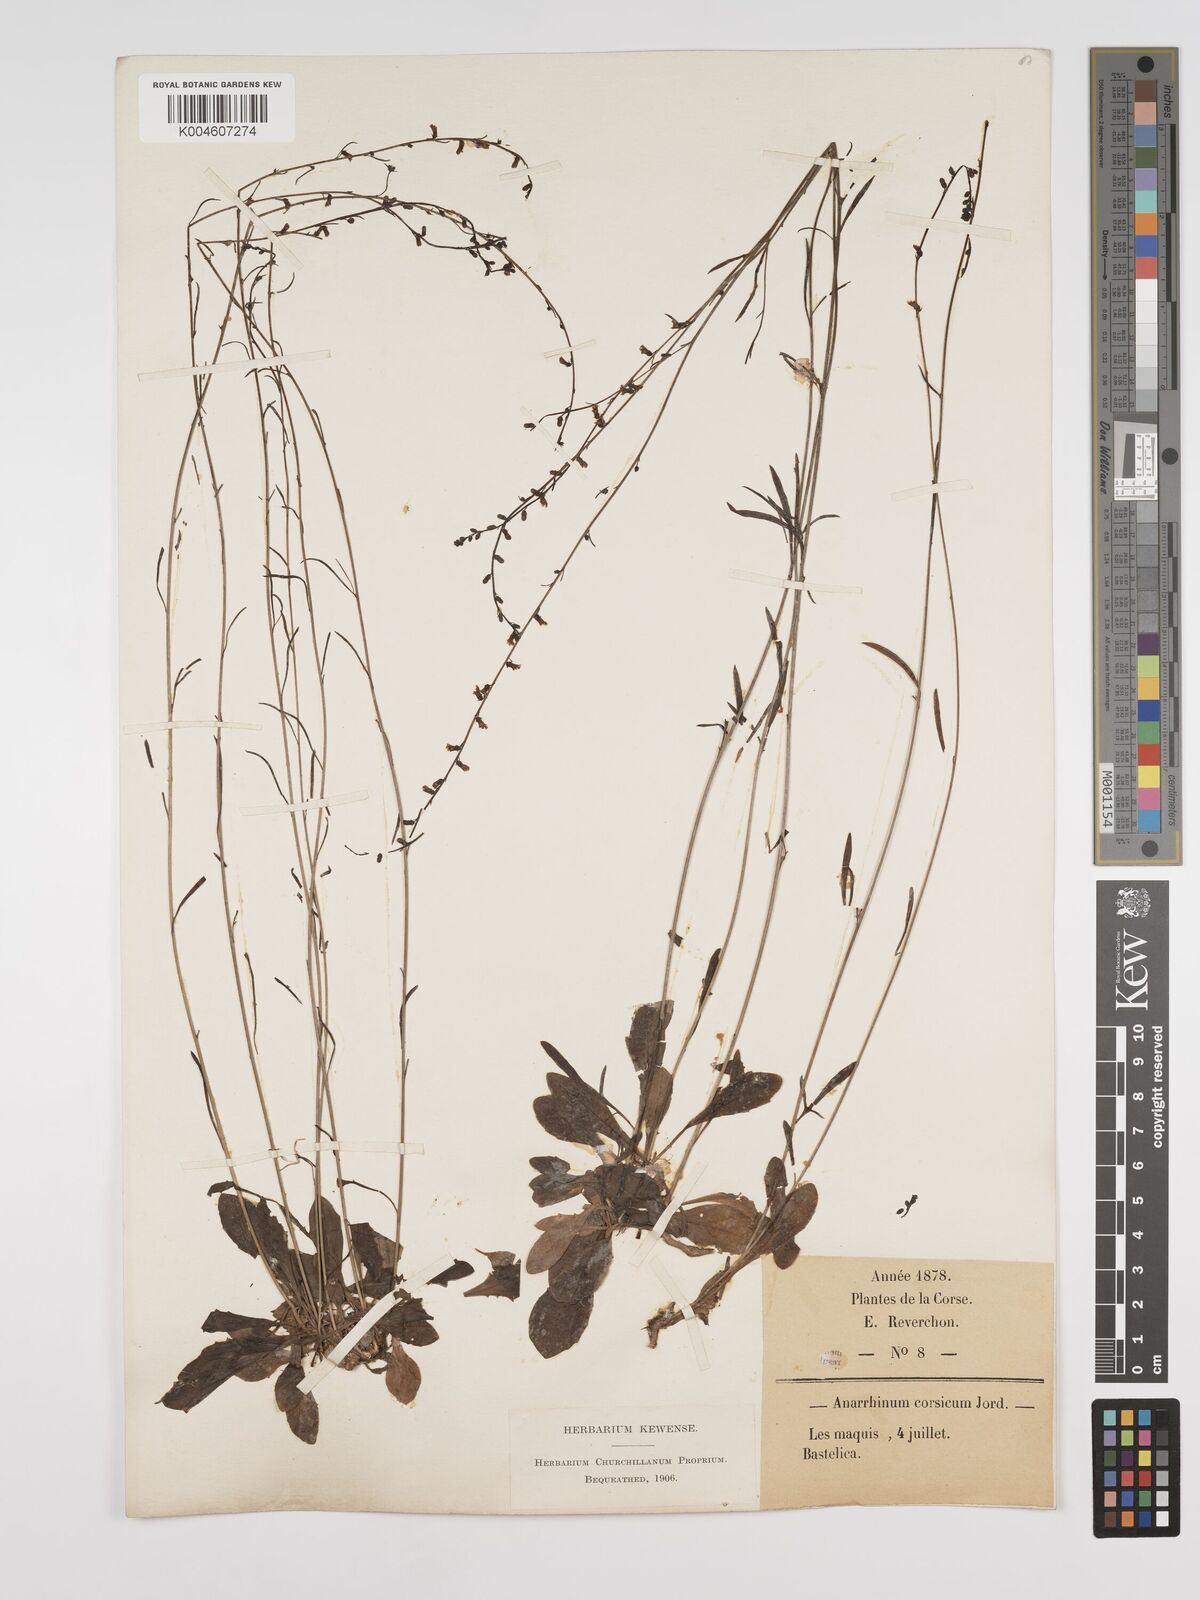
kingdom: Plantae
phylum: Tracheophyta
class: Magnoliopsida
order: Lamiales
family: Plantaginaceae
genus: Anarrhinum
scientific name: Anarrhinum corsicum
